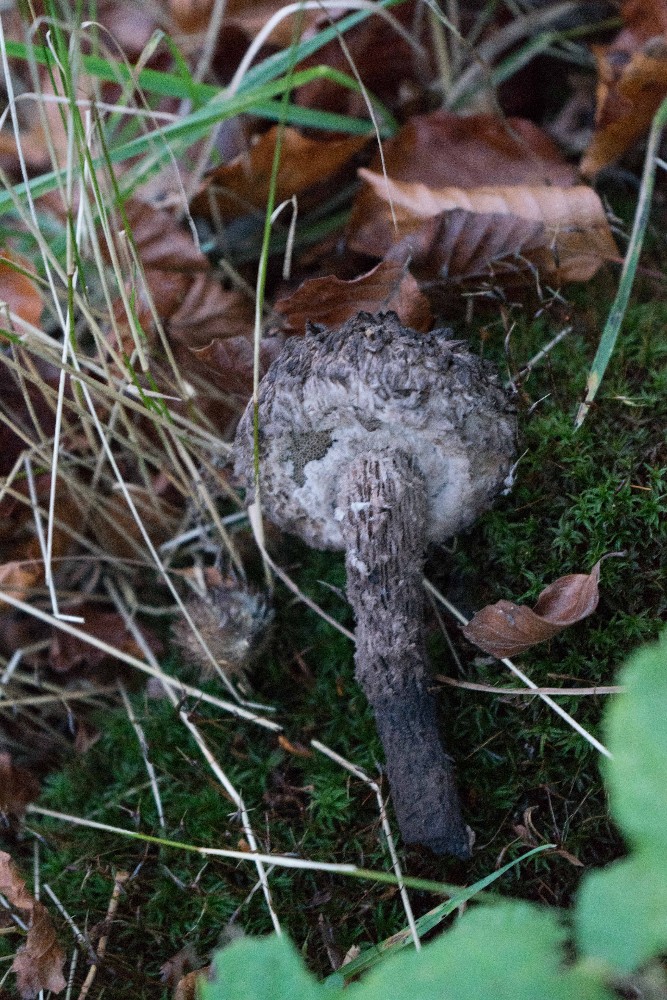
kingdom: Fungi
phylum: Basidiomycota
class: Agaricomycetes
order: Boletales
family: Boletaceae
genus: Strobilomyces
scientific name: Strobilomyces strobilaceus
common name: koglerørhat
